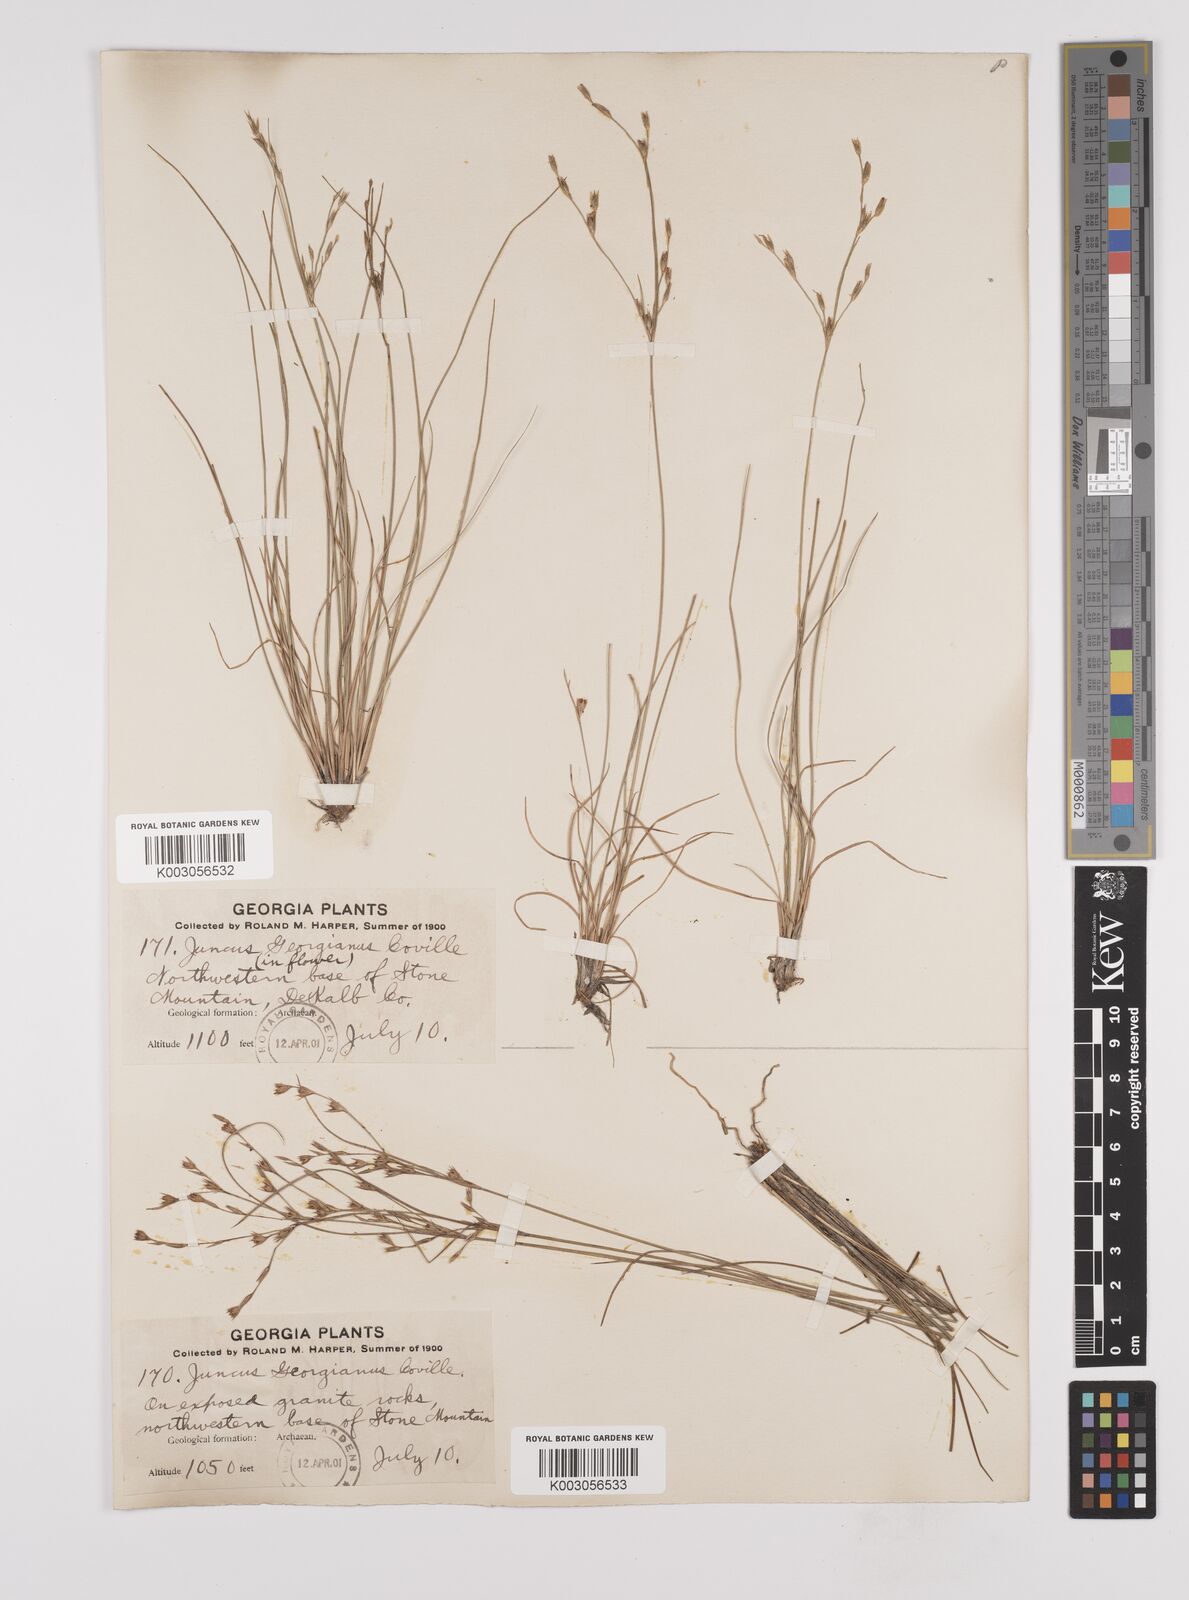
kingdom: Plantae
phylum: Tracheophyta
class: Liliopsida
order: Poales
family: Juncaceae
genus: Juncus
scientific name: Juncus georgianus
